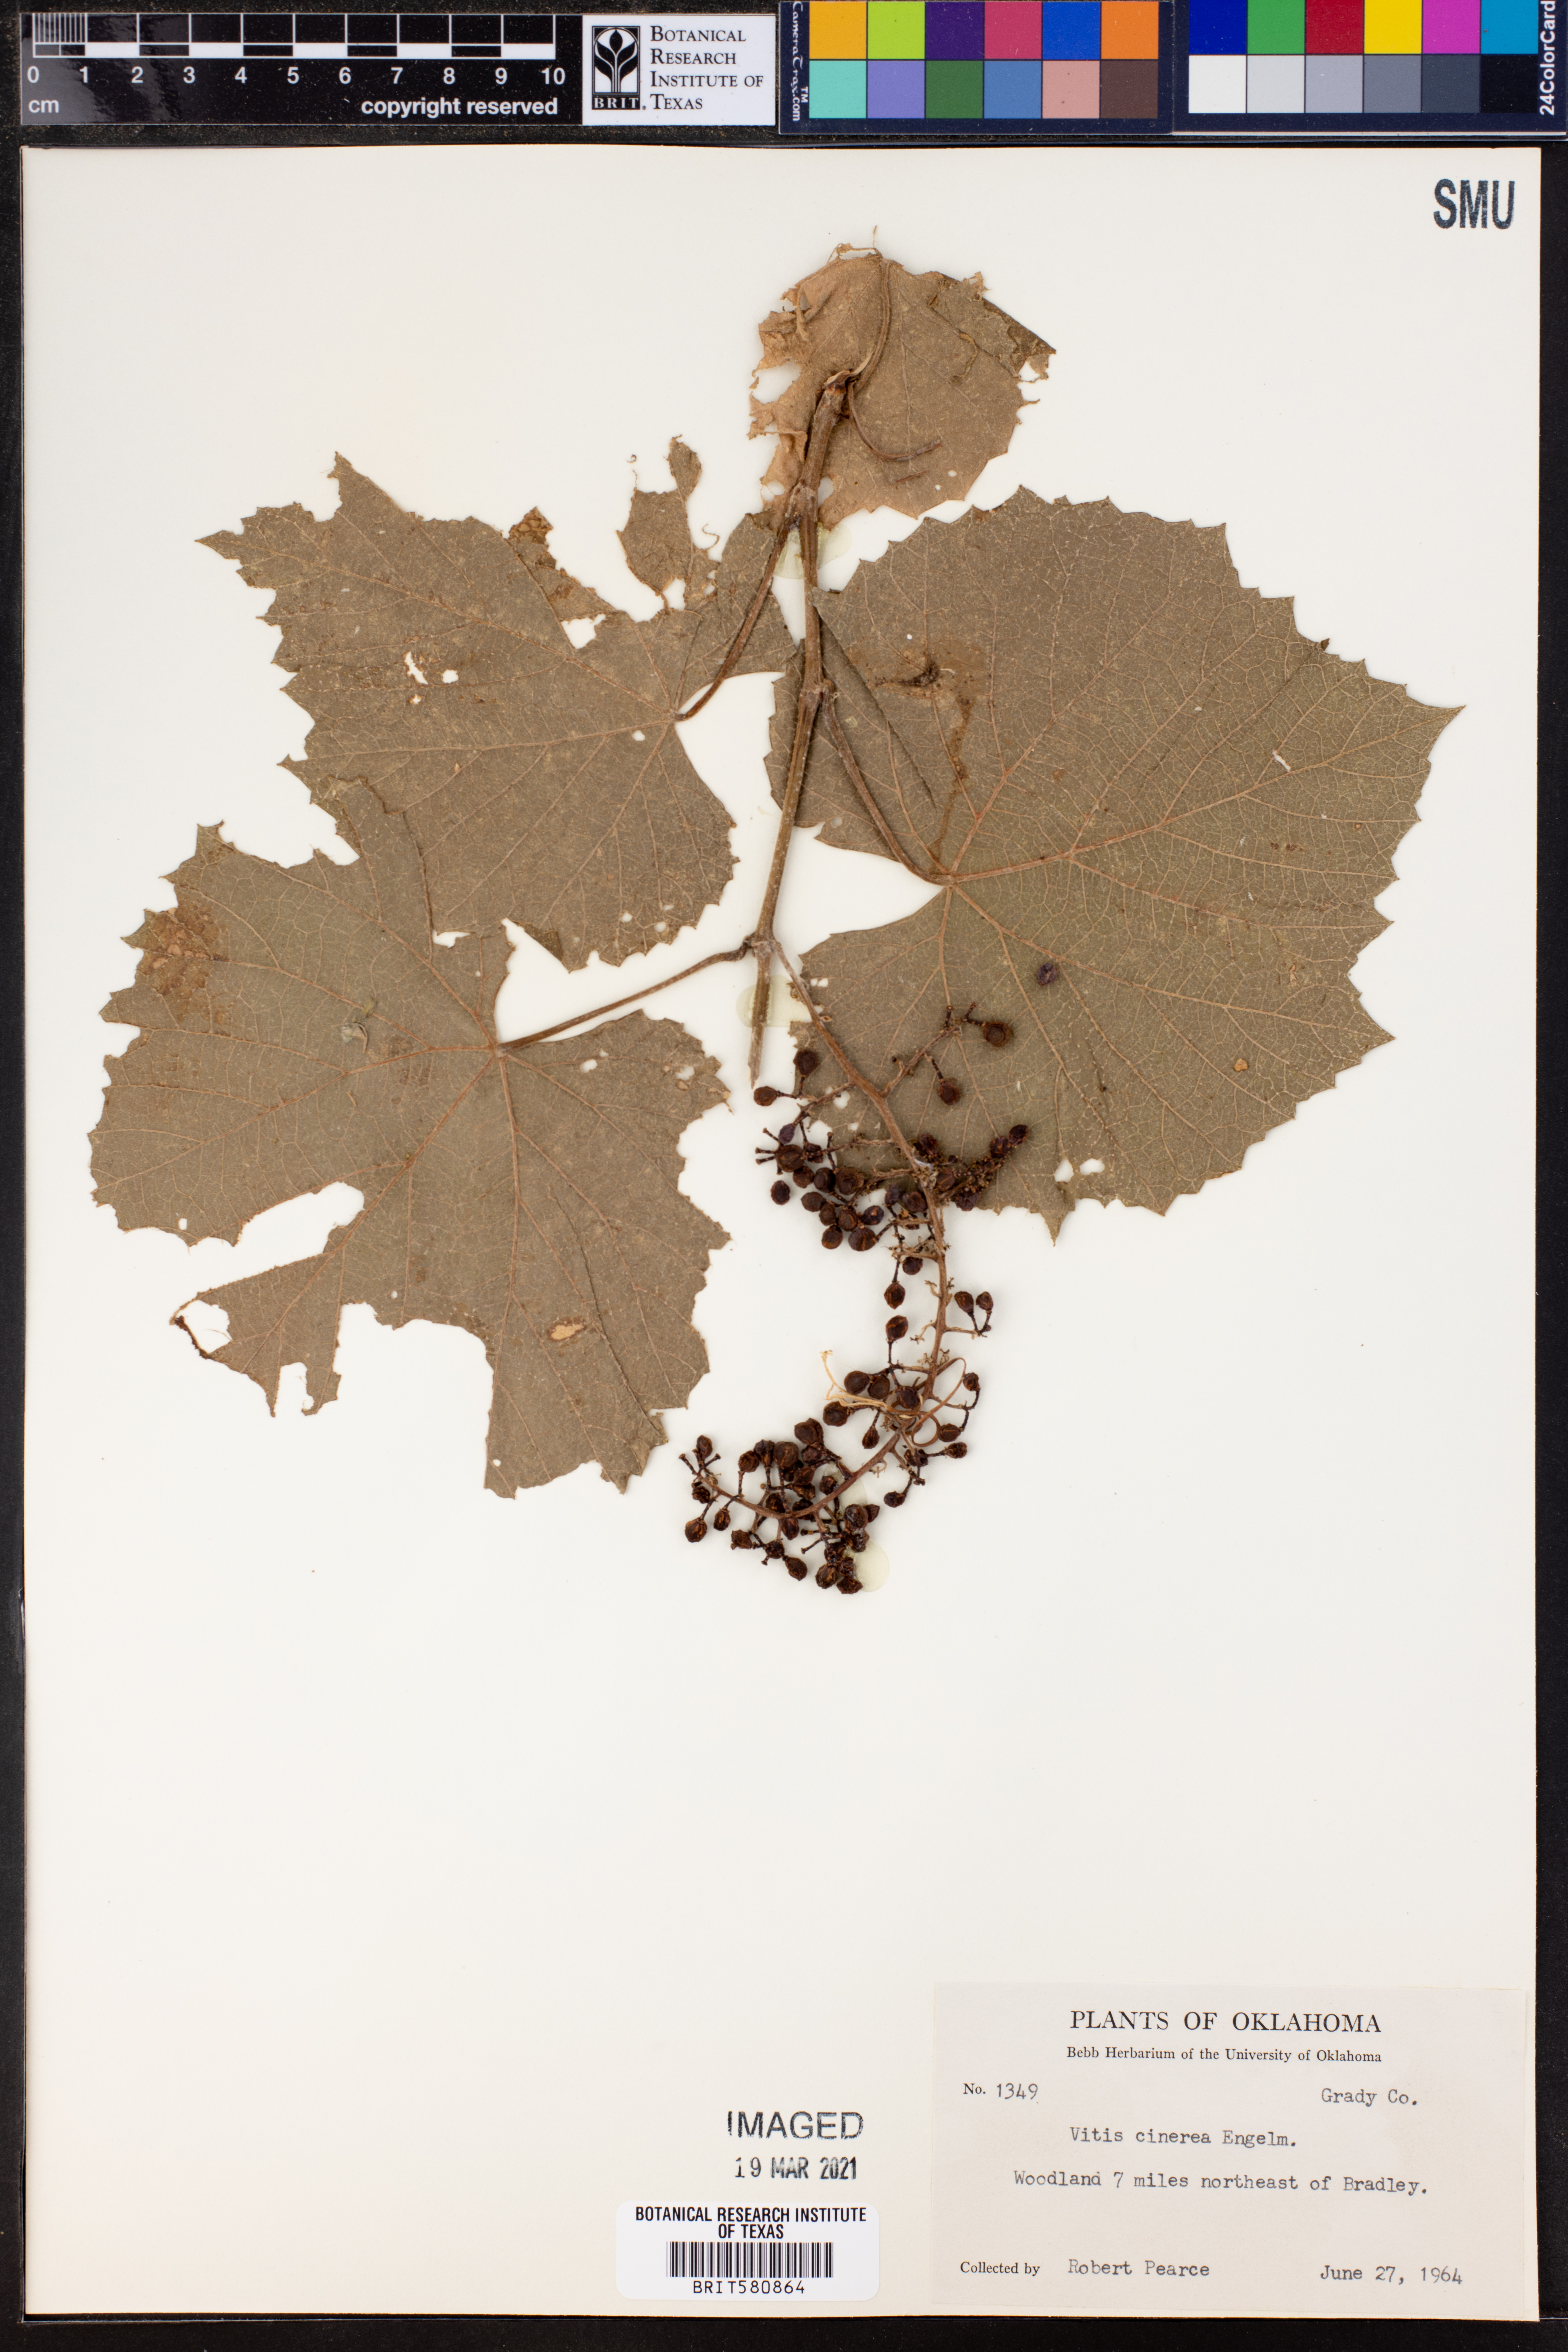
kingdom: Plantae
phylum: Tracheophyta
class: Magnoliopsida
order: Vitales
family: Vitaceae
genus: Vitis
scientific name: Vitis cinerea
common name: Ashy grape
